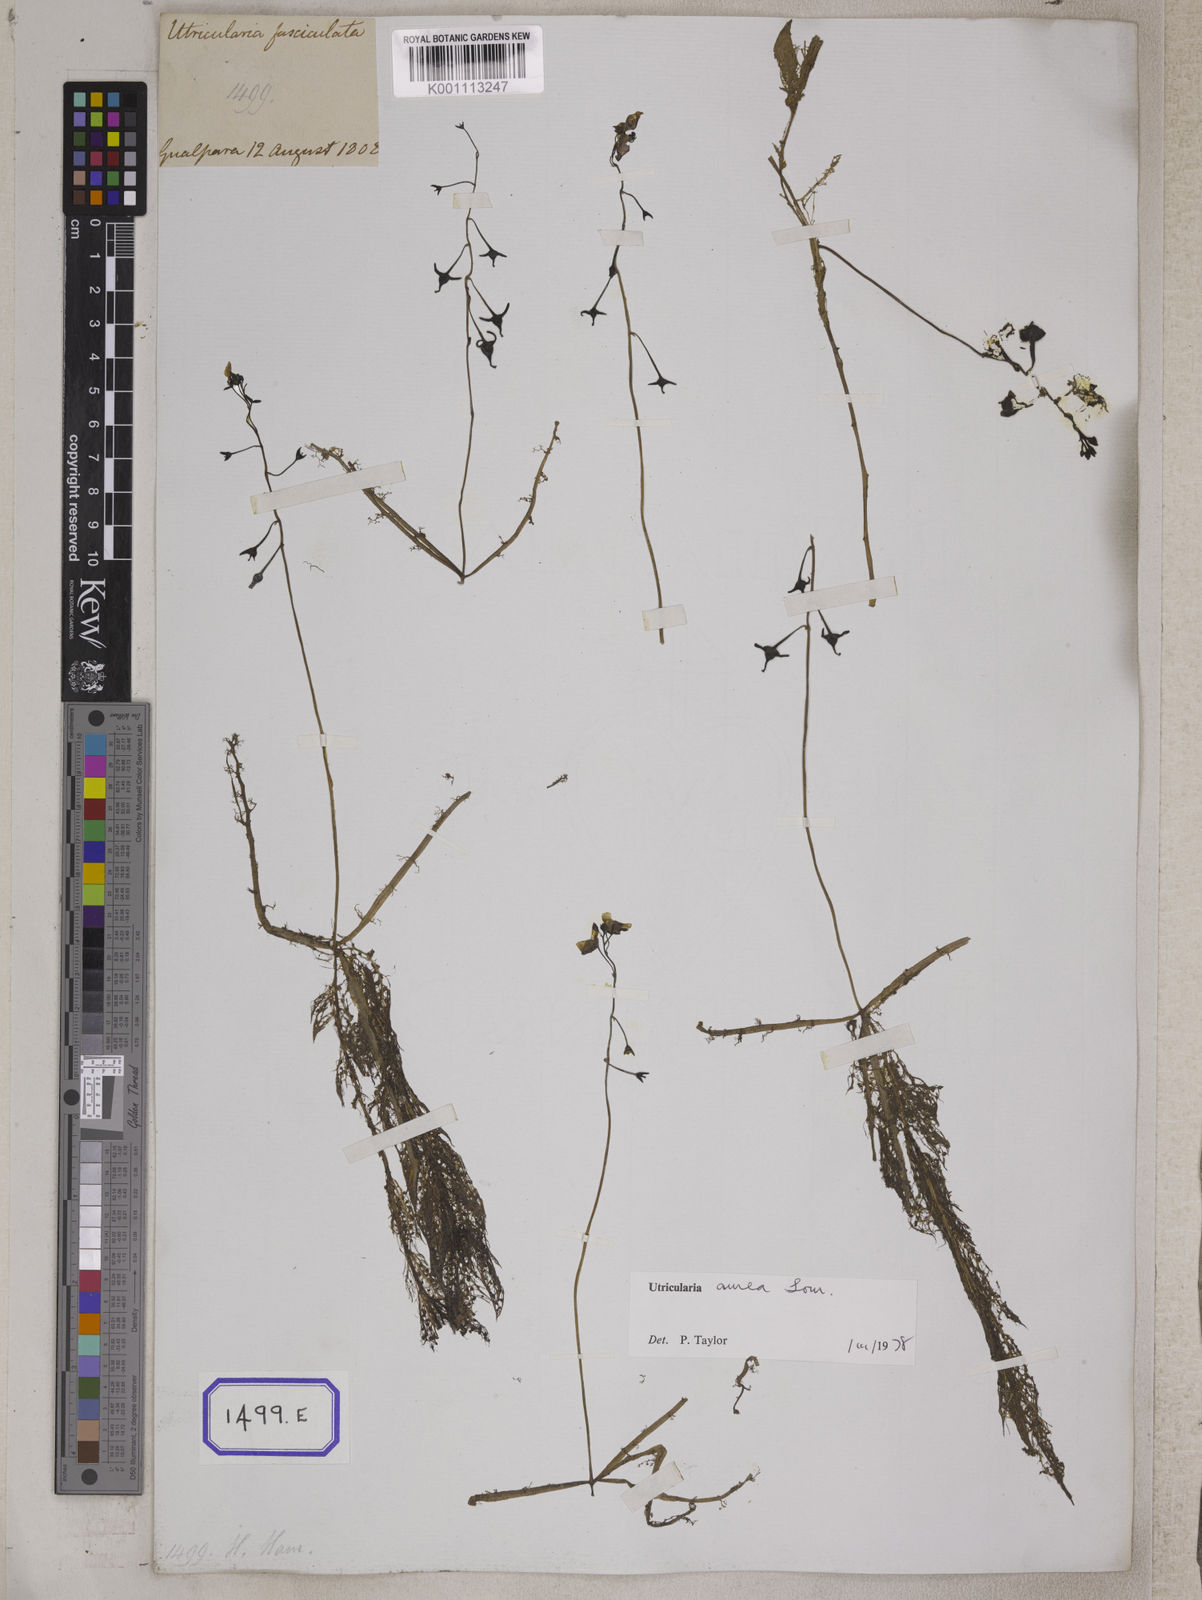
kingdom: Plantae
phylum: Tracheophyta
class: Magnoliopsida
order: Lamiales
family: Lentibulariaceae
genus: Utricularia
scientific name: Utricularia aurea
